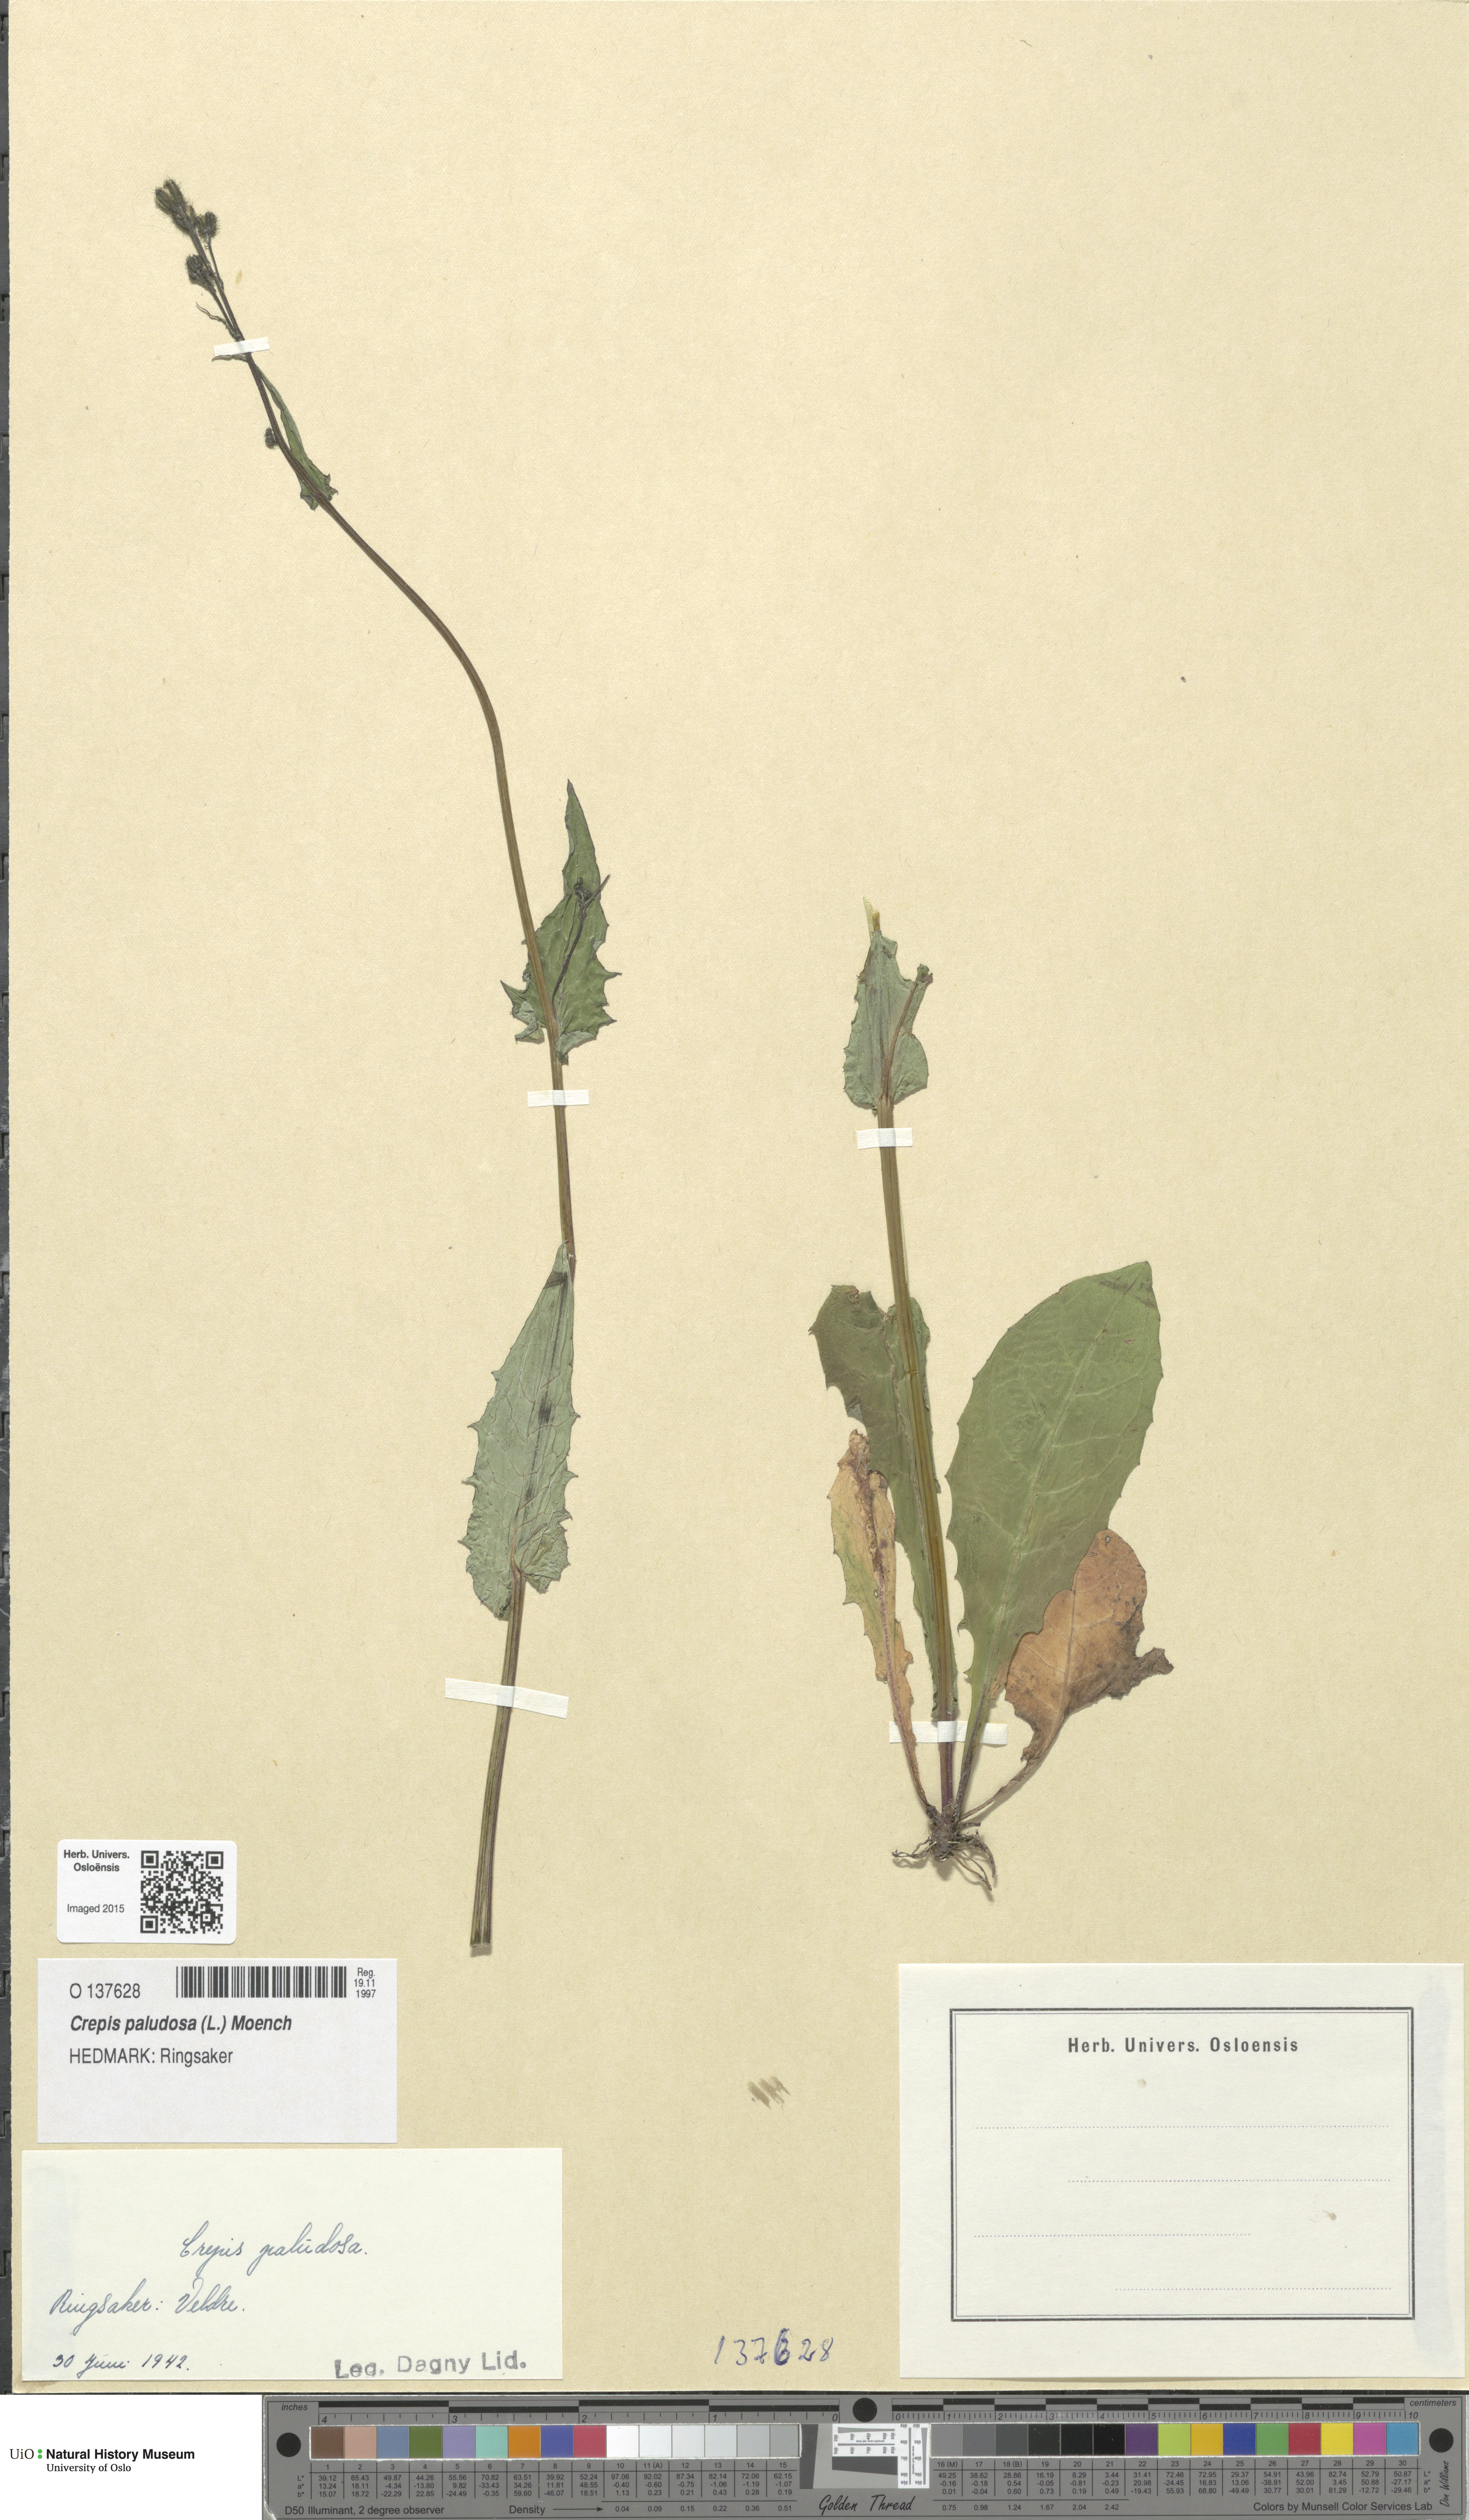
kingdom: Plantae
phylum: Tracheophyta
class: Magnoliopsida
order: Asterales
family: Asteraceae
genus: Crepis
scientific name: Crepis paludosa
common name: Marsh hawk's-beard
